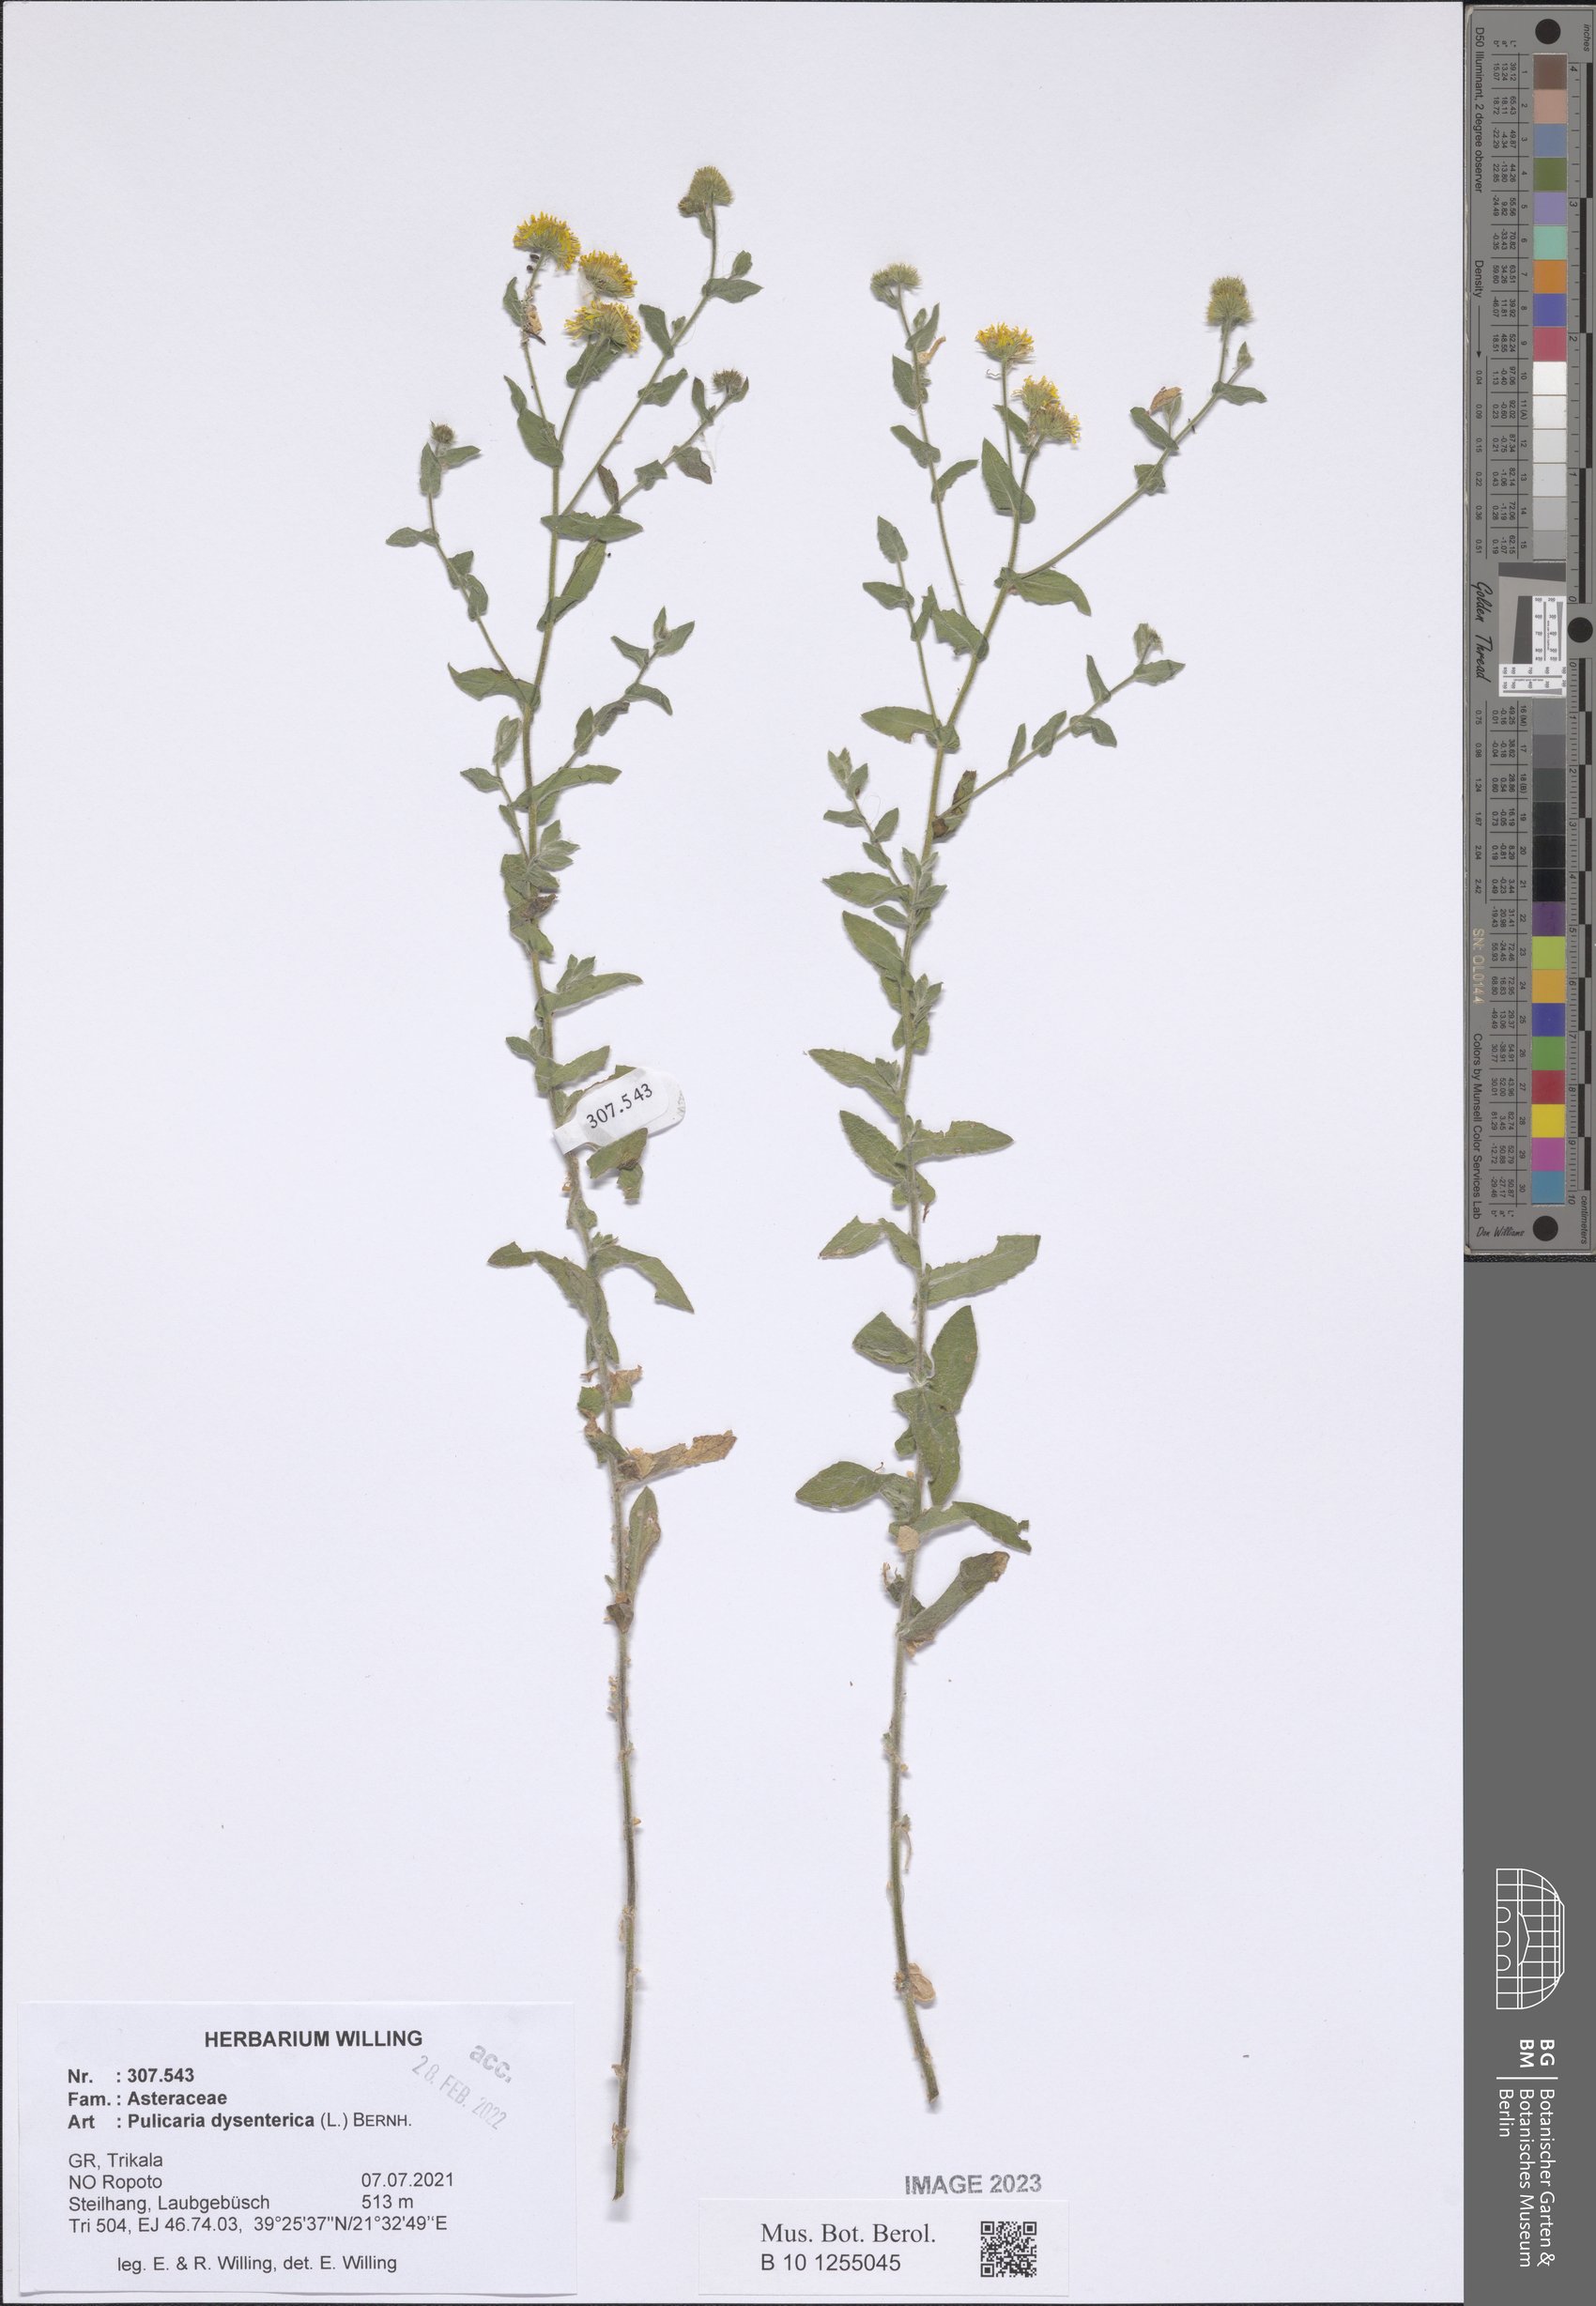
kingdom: Plantae
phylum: Tracheophyta
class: Magnoliopsida
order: Asterales
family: Asteraceae
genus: Pulicaria
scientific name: Pulicaria dysenterica
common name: Common fleabane
